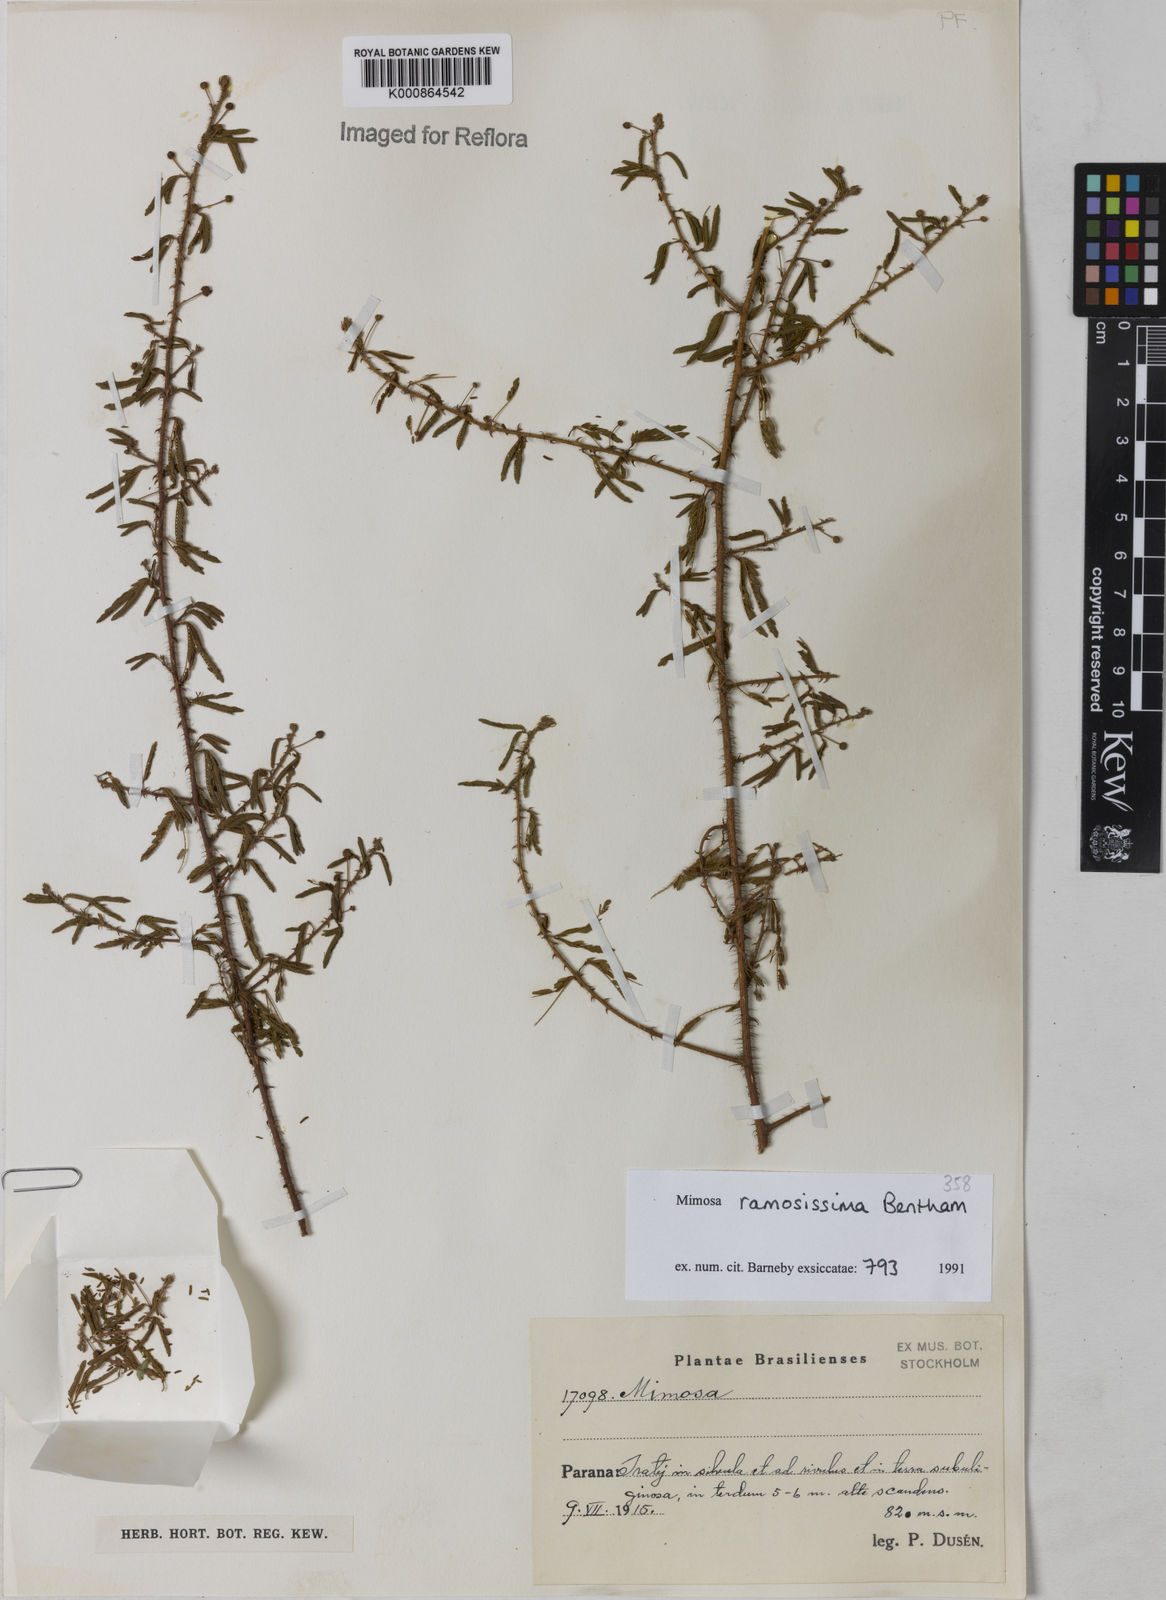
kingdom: Plantae
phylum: Tracheophyta
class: Magnoliopsida
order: Fabales
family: Fabaceae
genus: Mimosa
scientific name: Mimosa ramosissima
